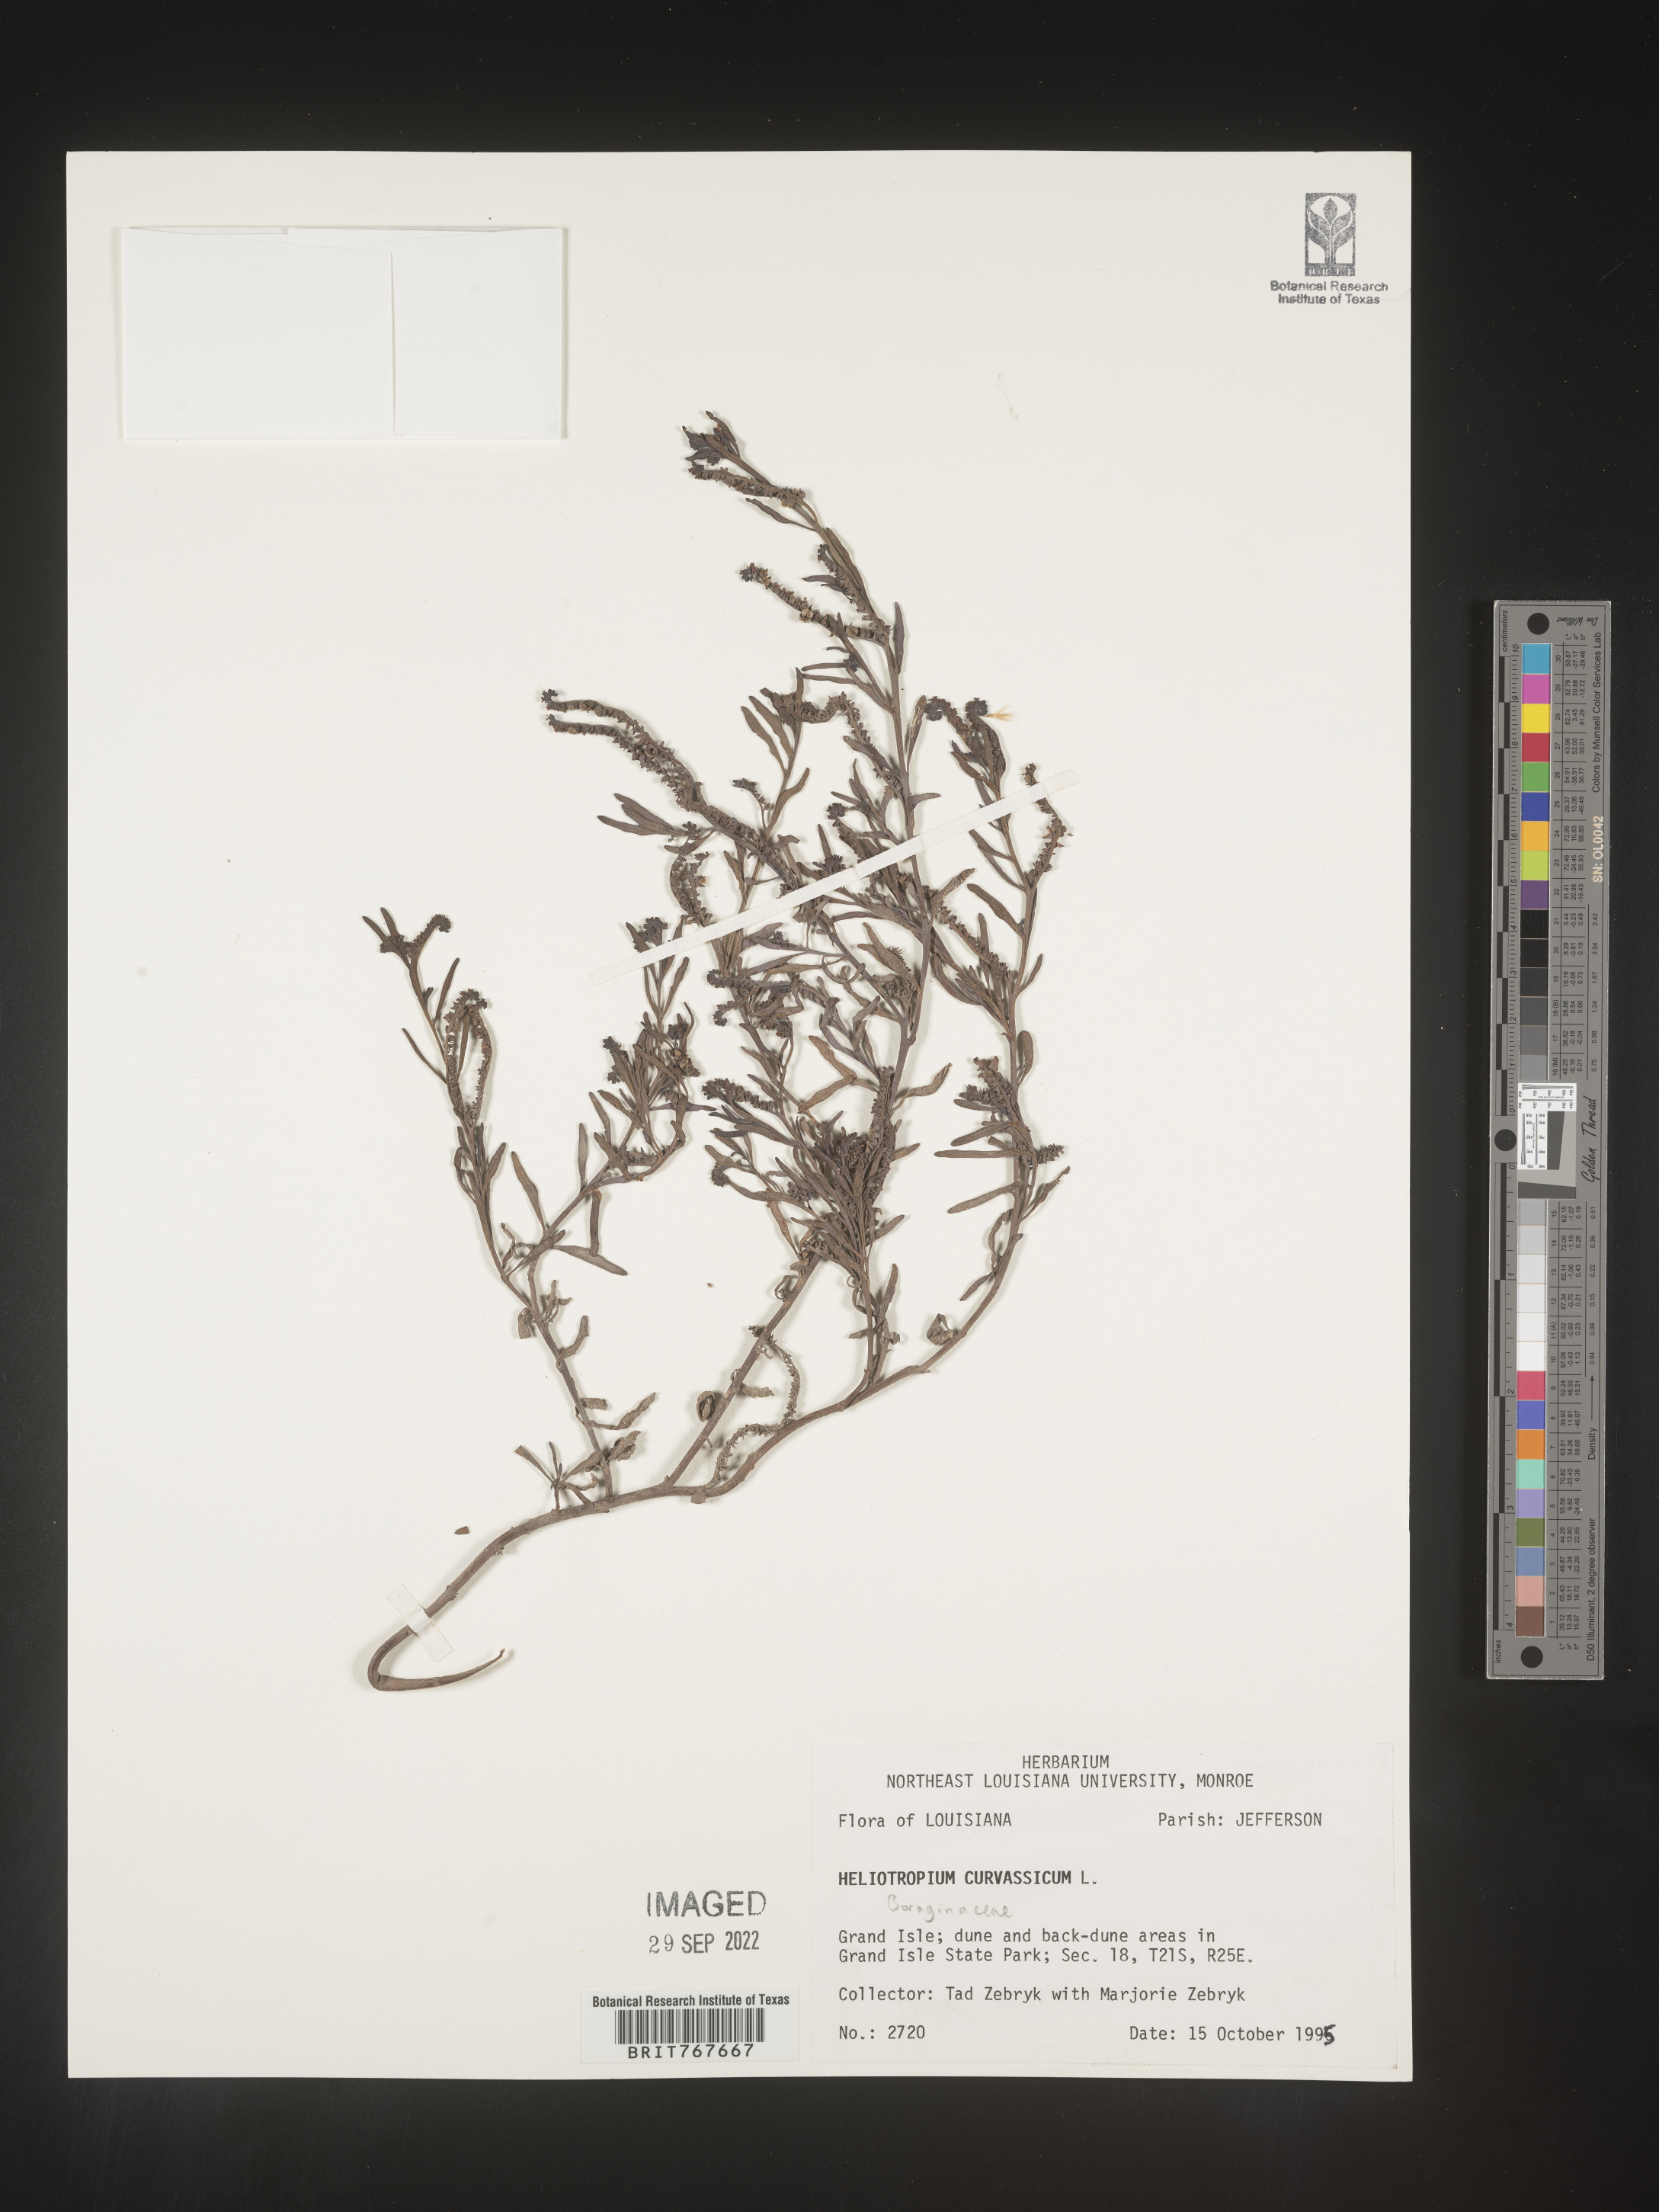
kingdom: Plantae
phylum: Tracheophyta
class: Magnoliopsida
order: Boraginales
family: Heliotropiaceae
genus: Heliotropium
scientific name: Heliotropium curassavicum
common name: Seaside heliotrope
